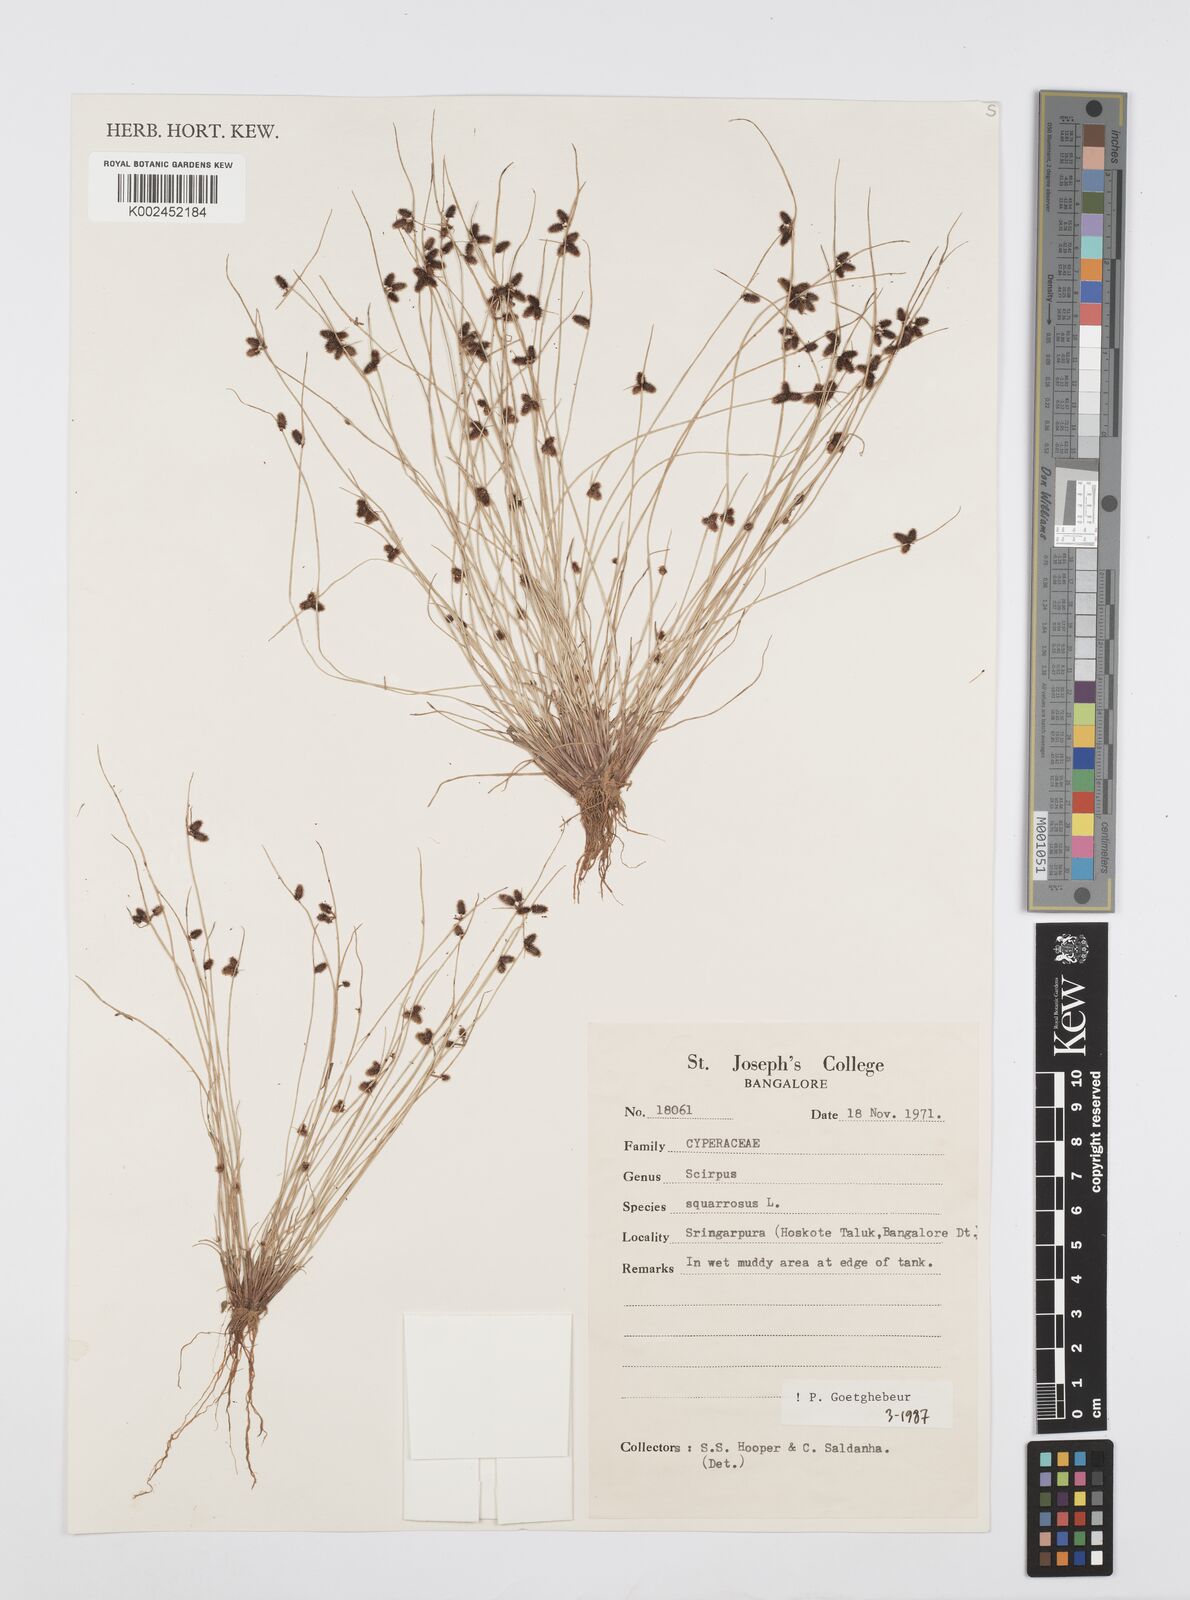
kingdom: Plantae
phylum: Tracheophyta
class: Liliopsida
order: Poales
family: Cyperaceae
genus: Cyperus
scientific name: Cyperus squarrosus
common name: Awned cyperus
